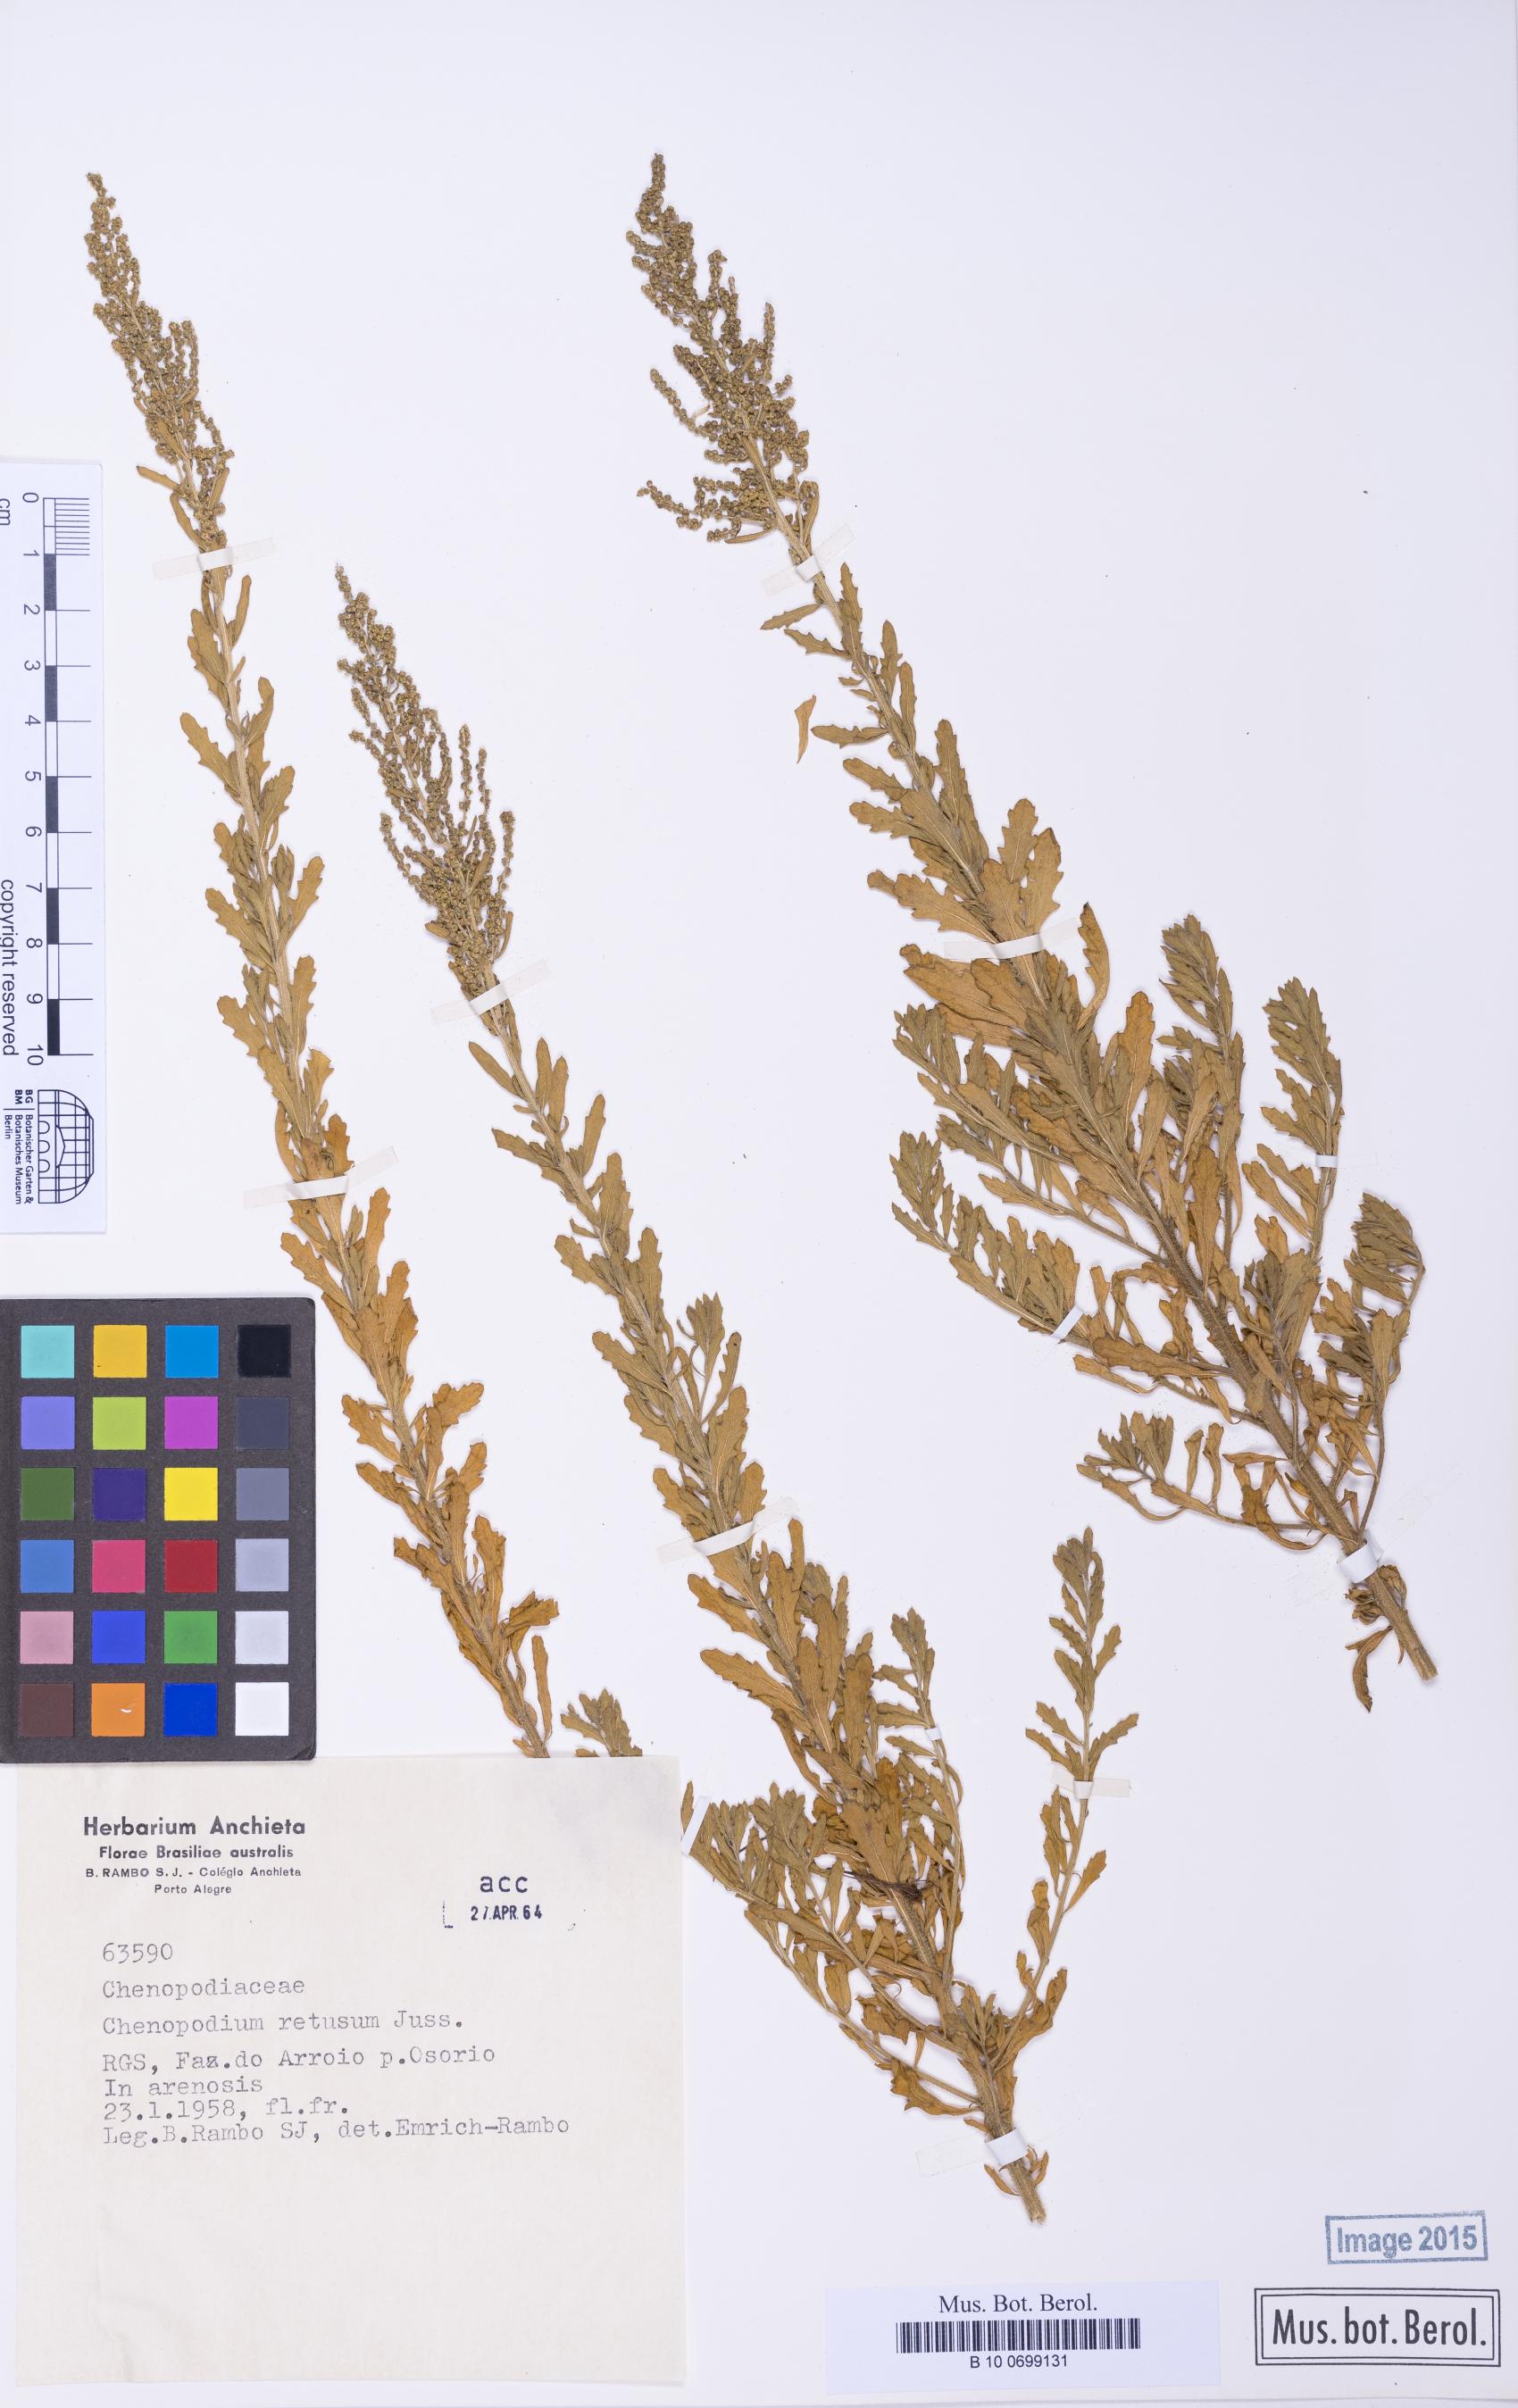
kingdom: Plantae
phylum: Tracheophyta
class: Magnoliopsida
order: Caryophyllales
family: Amaranthaceae
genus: Dysphania
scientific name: Dysphania retusa
